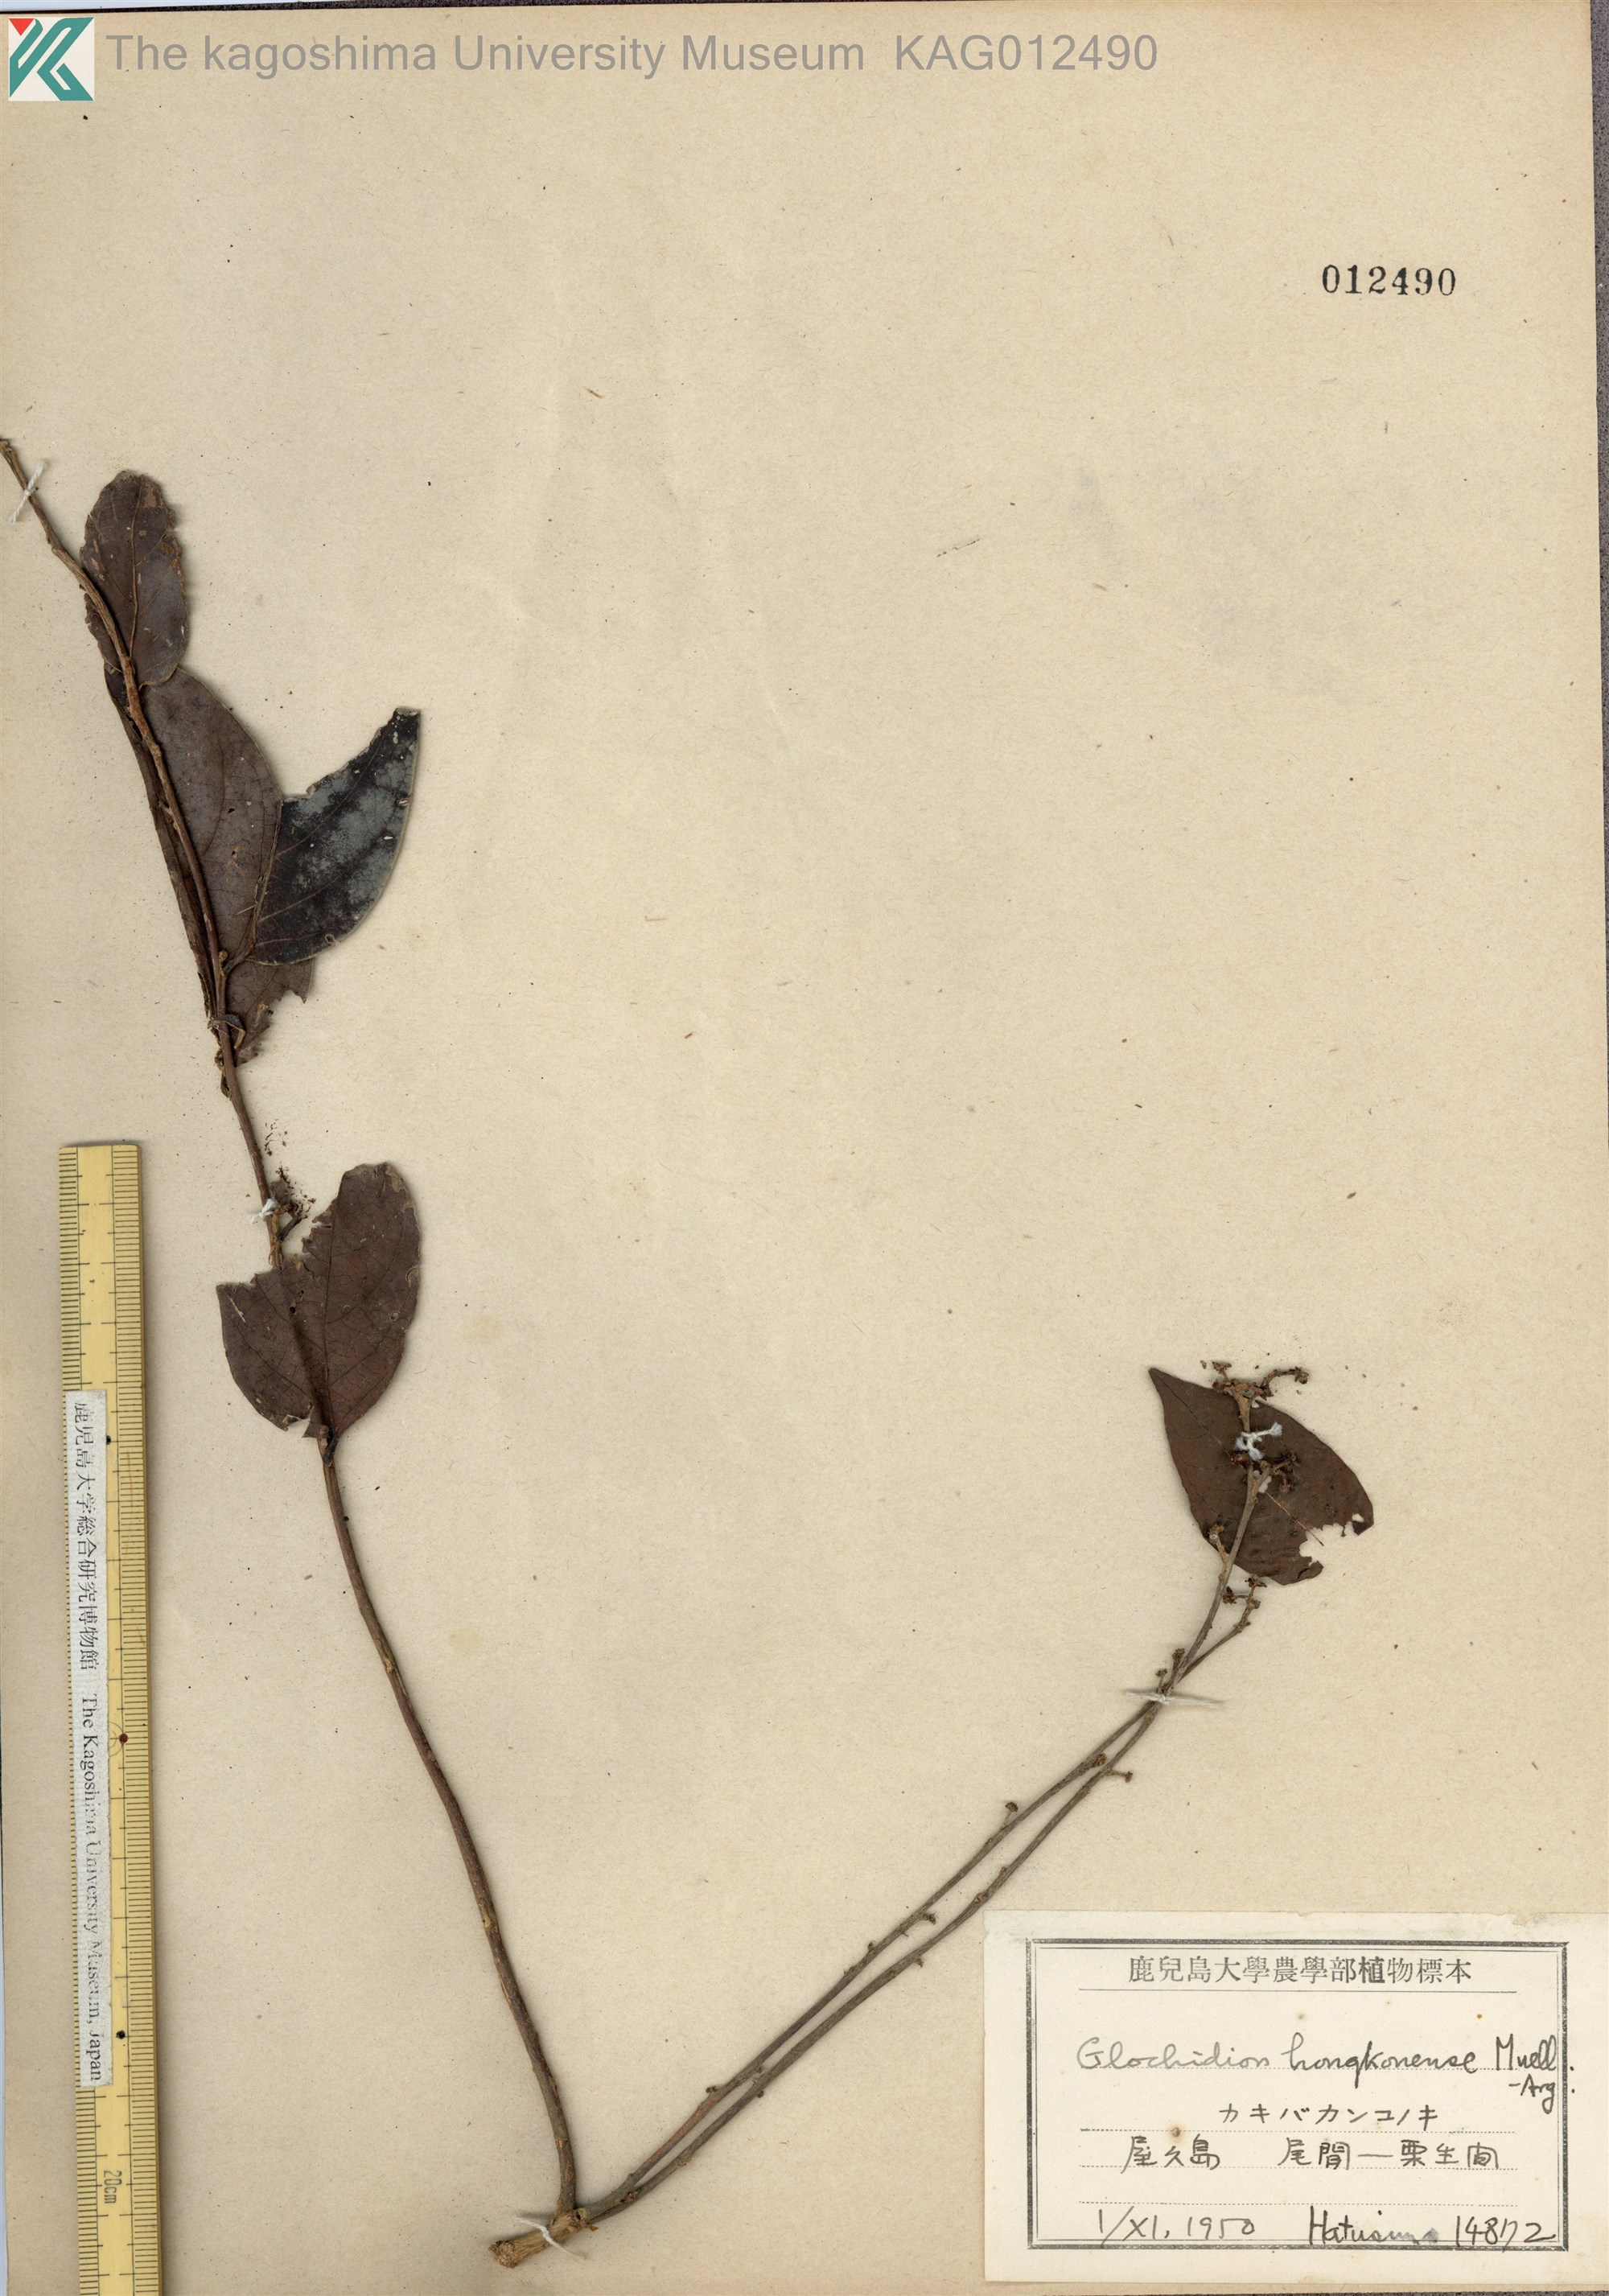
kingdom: Plantae
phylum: Tracheophyta
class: Magnoliopsida
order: Malpighiales
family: Phyllanthaceae
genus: Glochidion
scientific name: Glochidion zeylanicum
